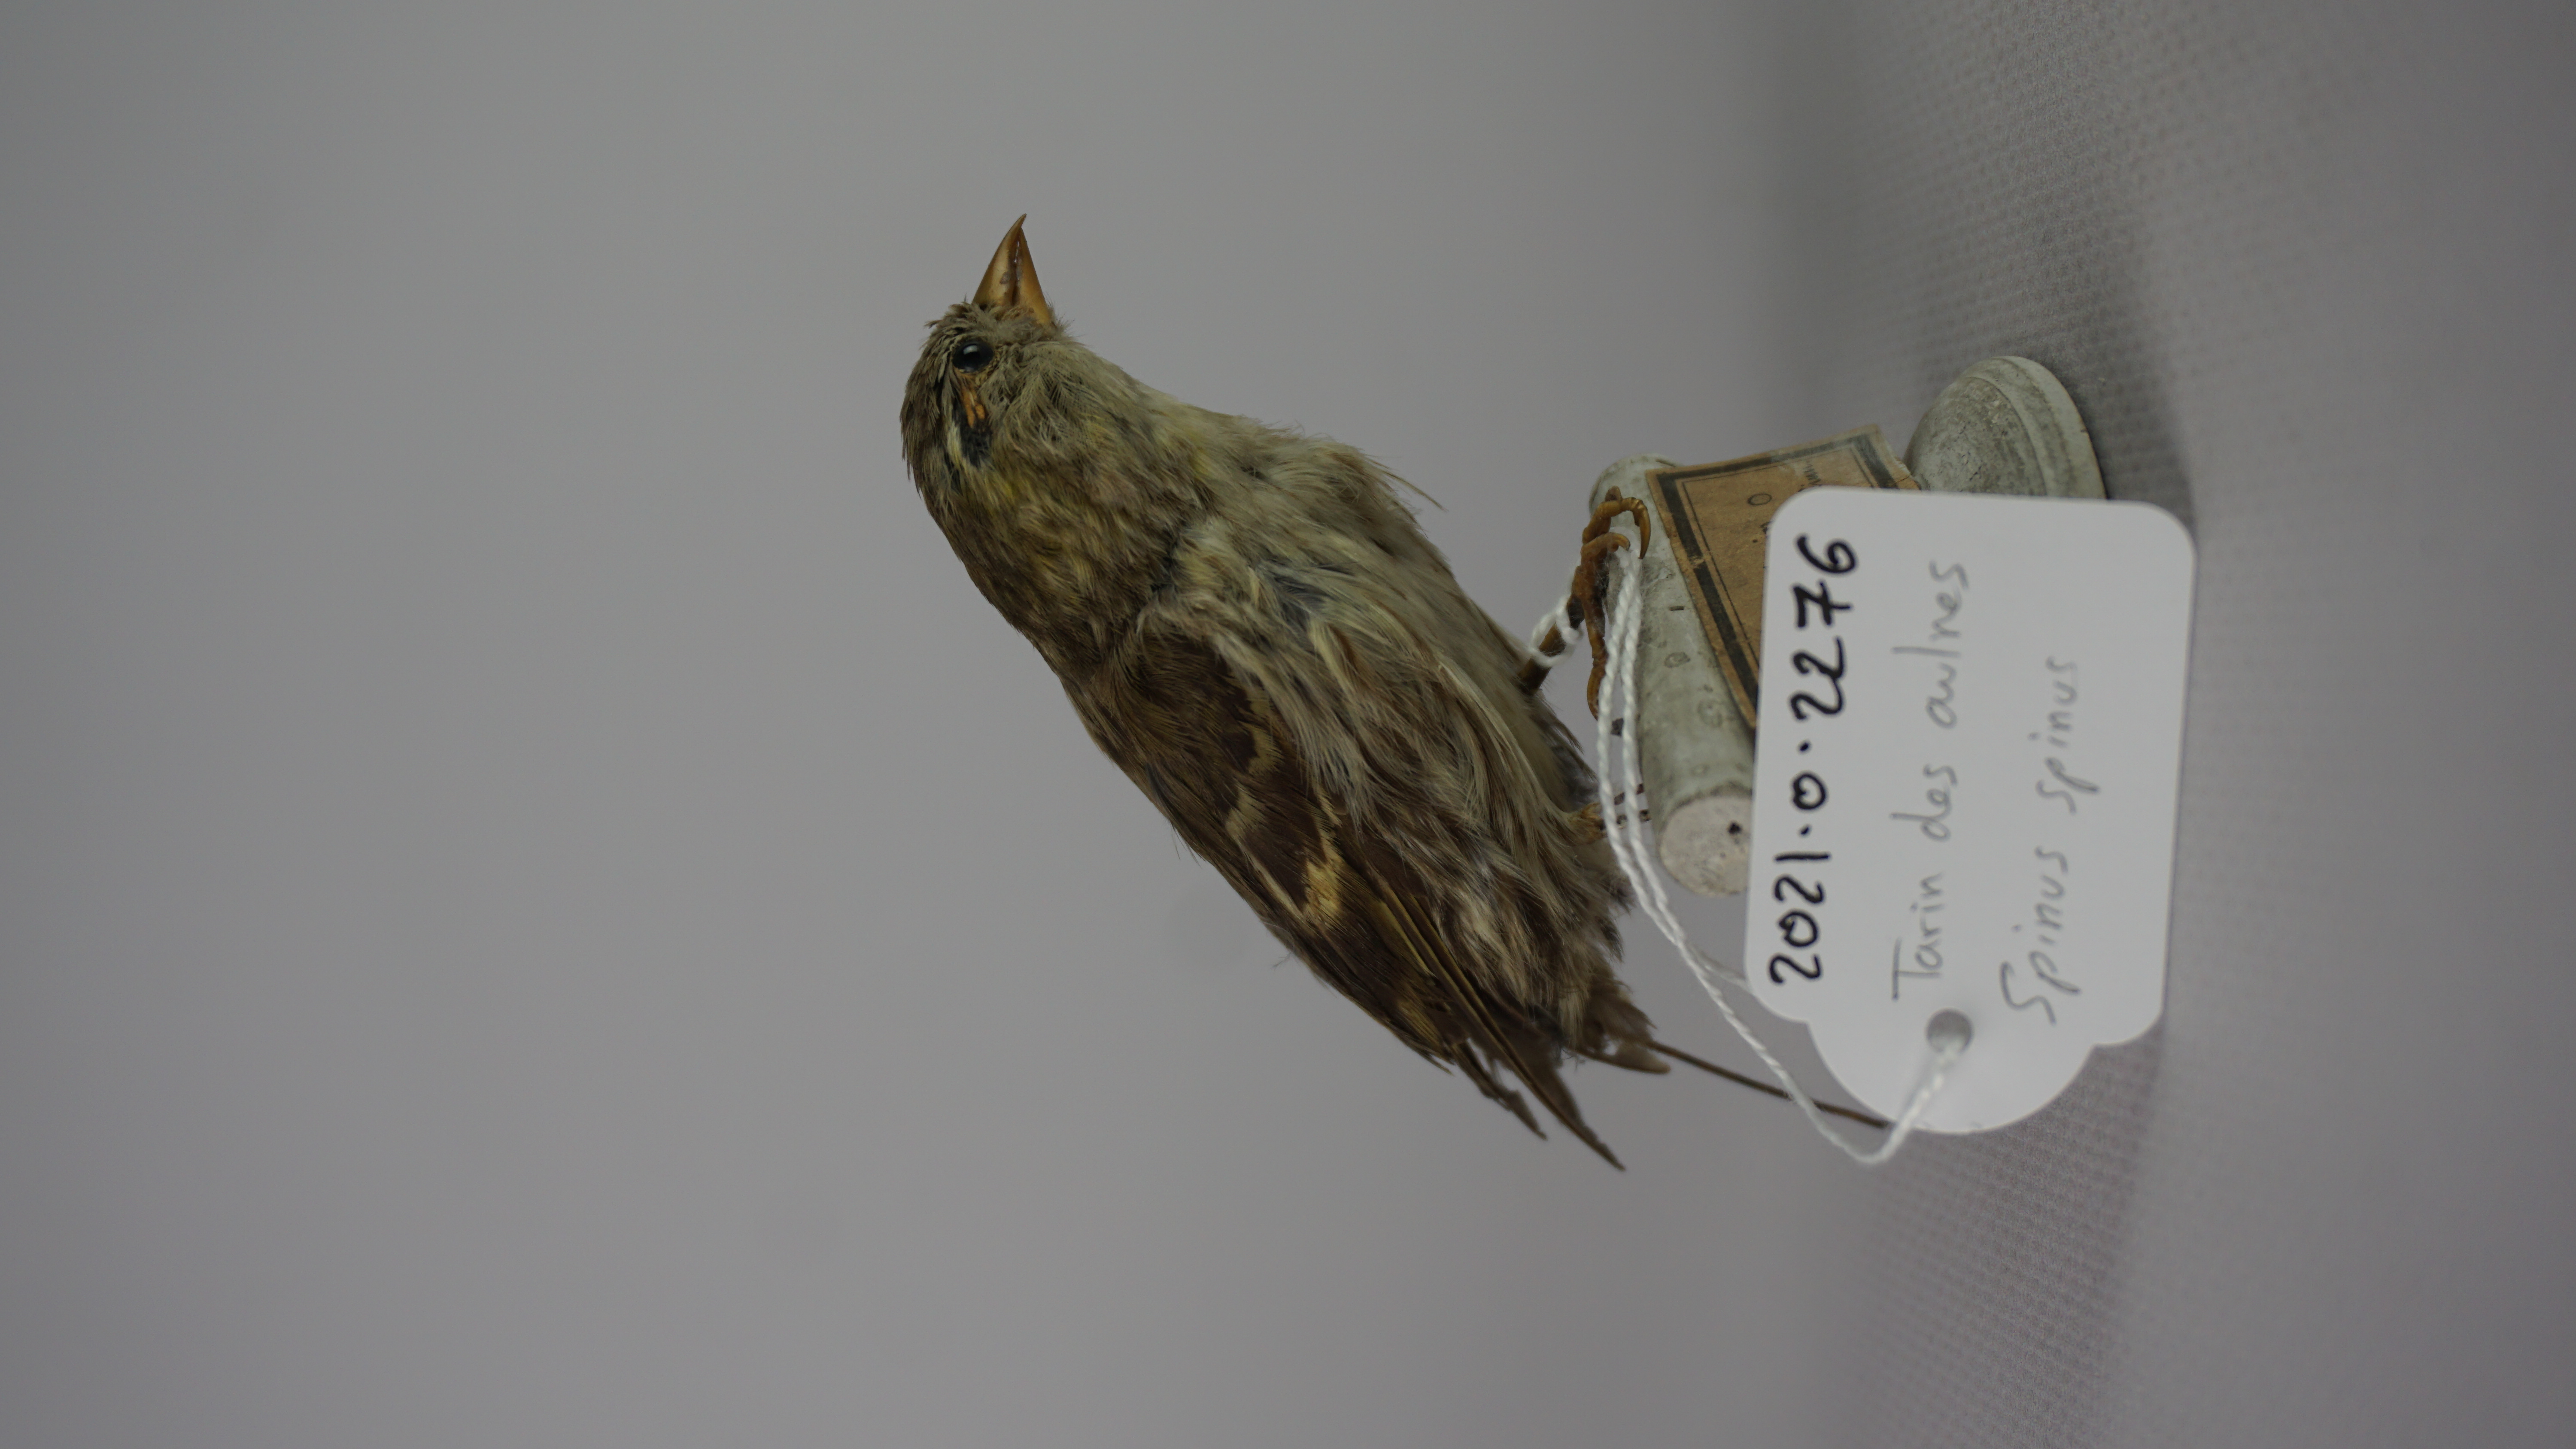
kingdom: Animalia
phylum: Chordata
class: Aves
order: Passeriformes
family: Fringillidae
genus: Spinus
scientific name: Spinus spinus
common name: Eurasian siskin
